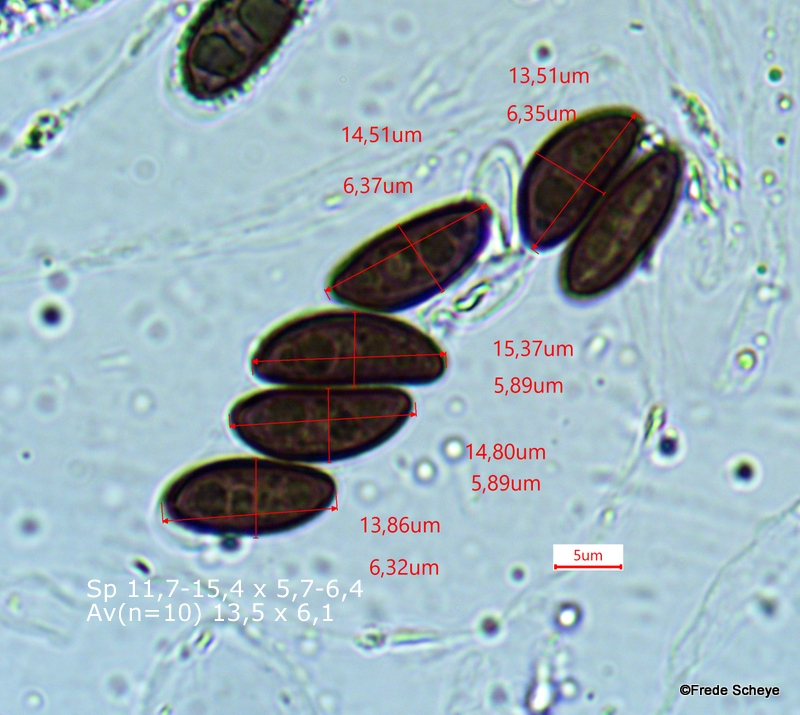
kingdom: Fungi
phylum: Ascomycota
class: Sordariomycetes
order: Xylariales
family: Hypoxylaceae
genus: Hypoxylon
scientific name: Hypoxylon fuscum
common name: kegleformet kulbær
